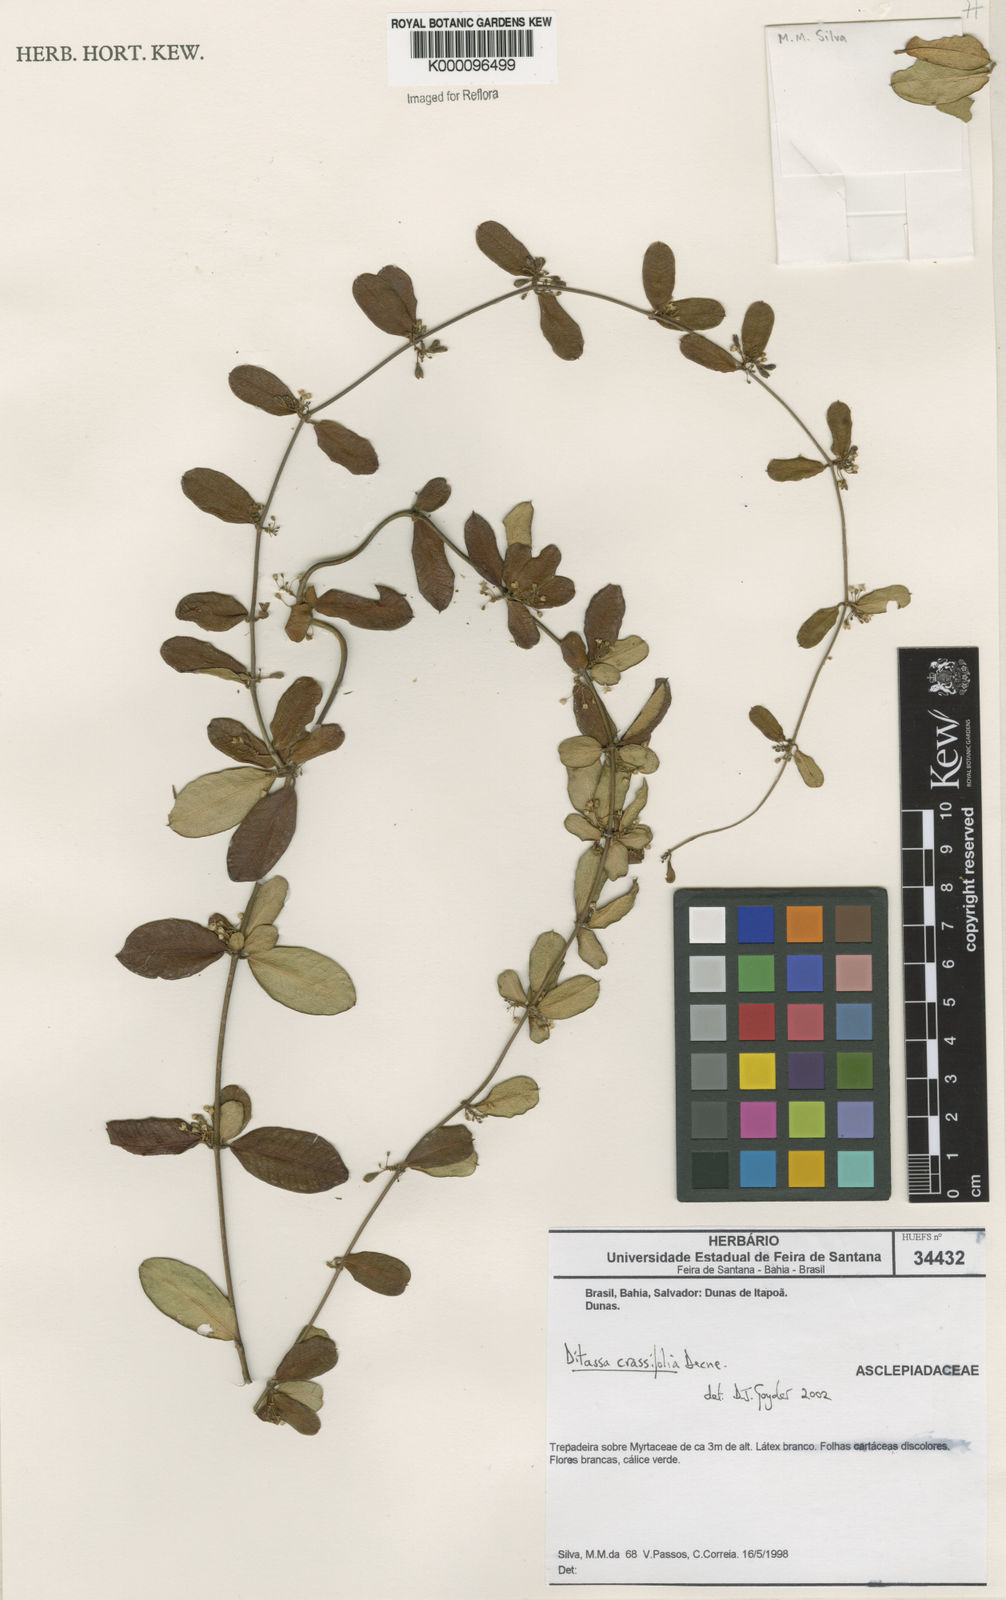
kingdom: Plantae
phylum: Tracheophyta
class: Magnoliopsida
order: Gentianales
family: Apocynaceae
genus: Ditassa
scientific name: Ditassa crassifolia
